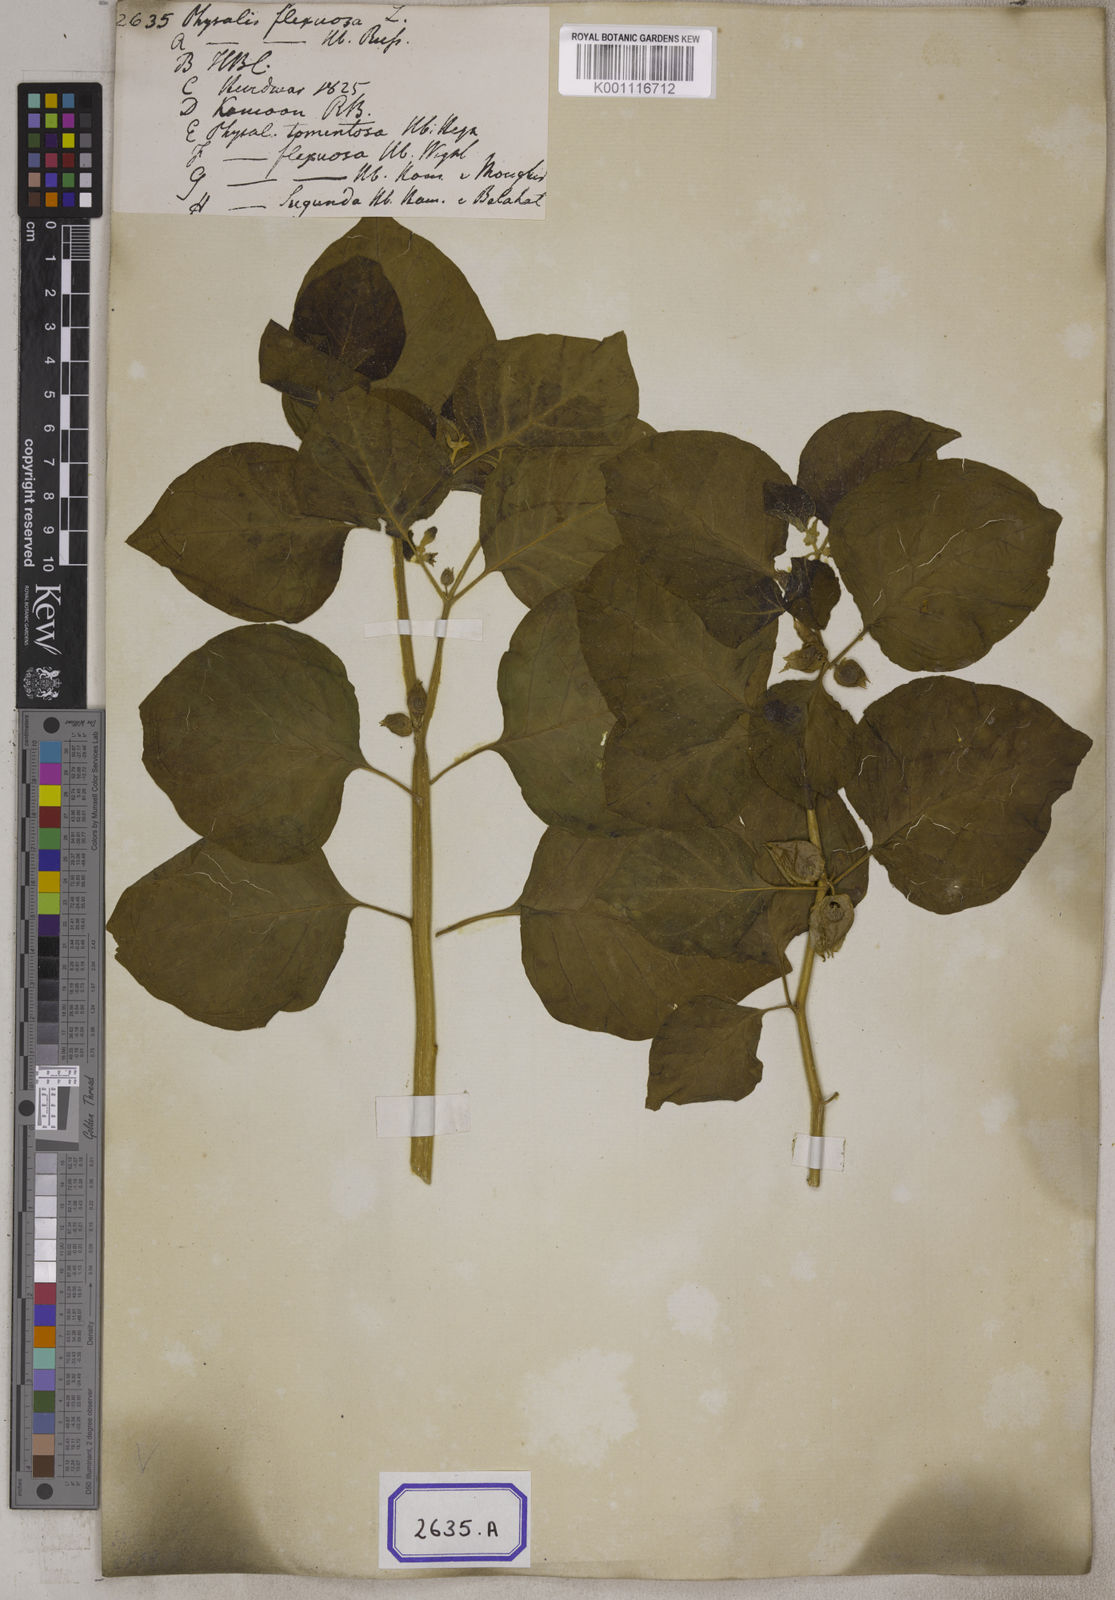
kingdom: Plantae
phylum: Tracheophyta
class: Magnoliopsida
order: Solanales
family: Solanaceae
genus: Withania
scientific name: Withania somnifera
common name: Winter-cherry
